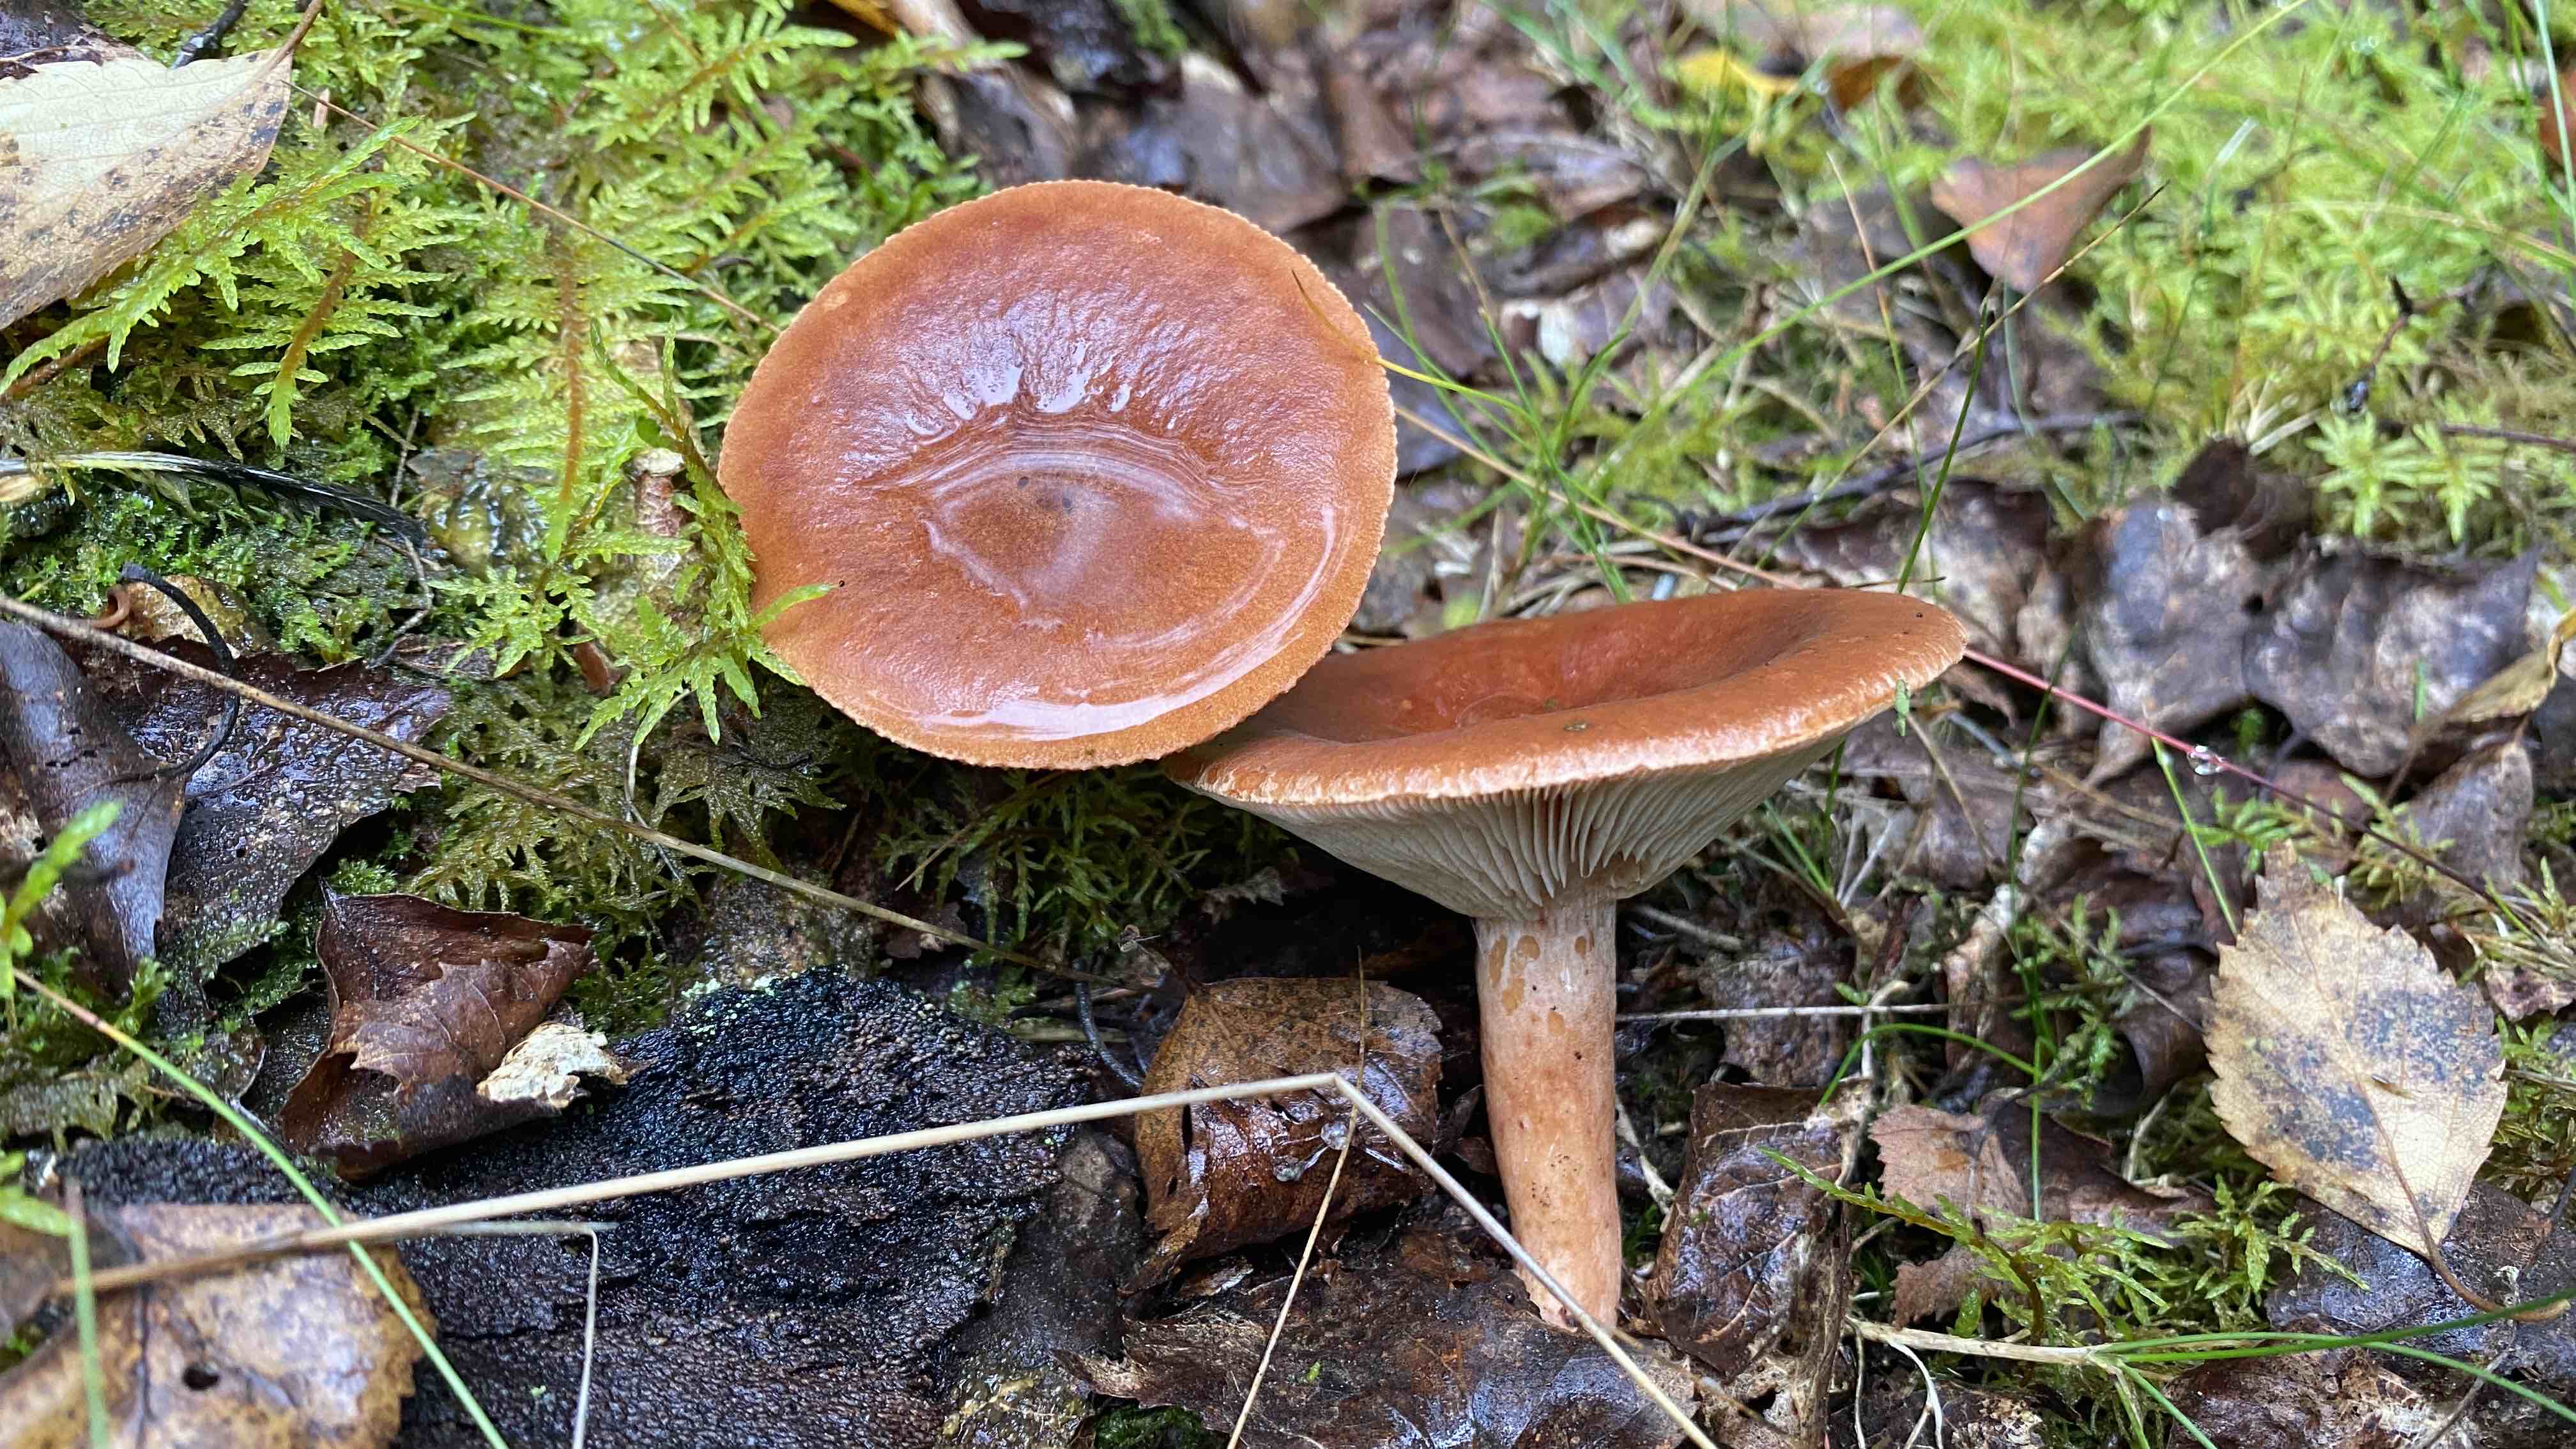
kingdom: Fungi
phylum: Basidiomycota
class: Agaricomycetes
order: Russulales
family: Russulaceae
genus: Lactarius
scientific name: Lactarius rufus
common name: rødbrun mælkehat
